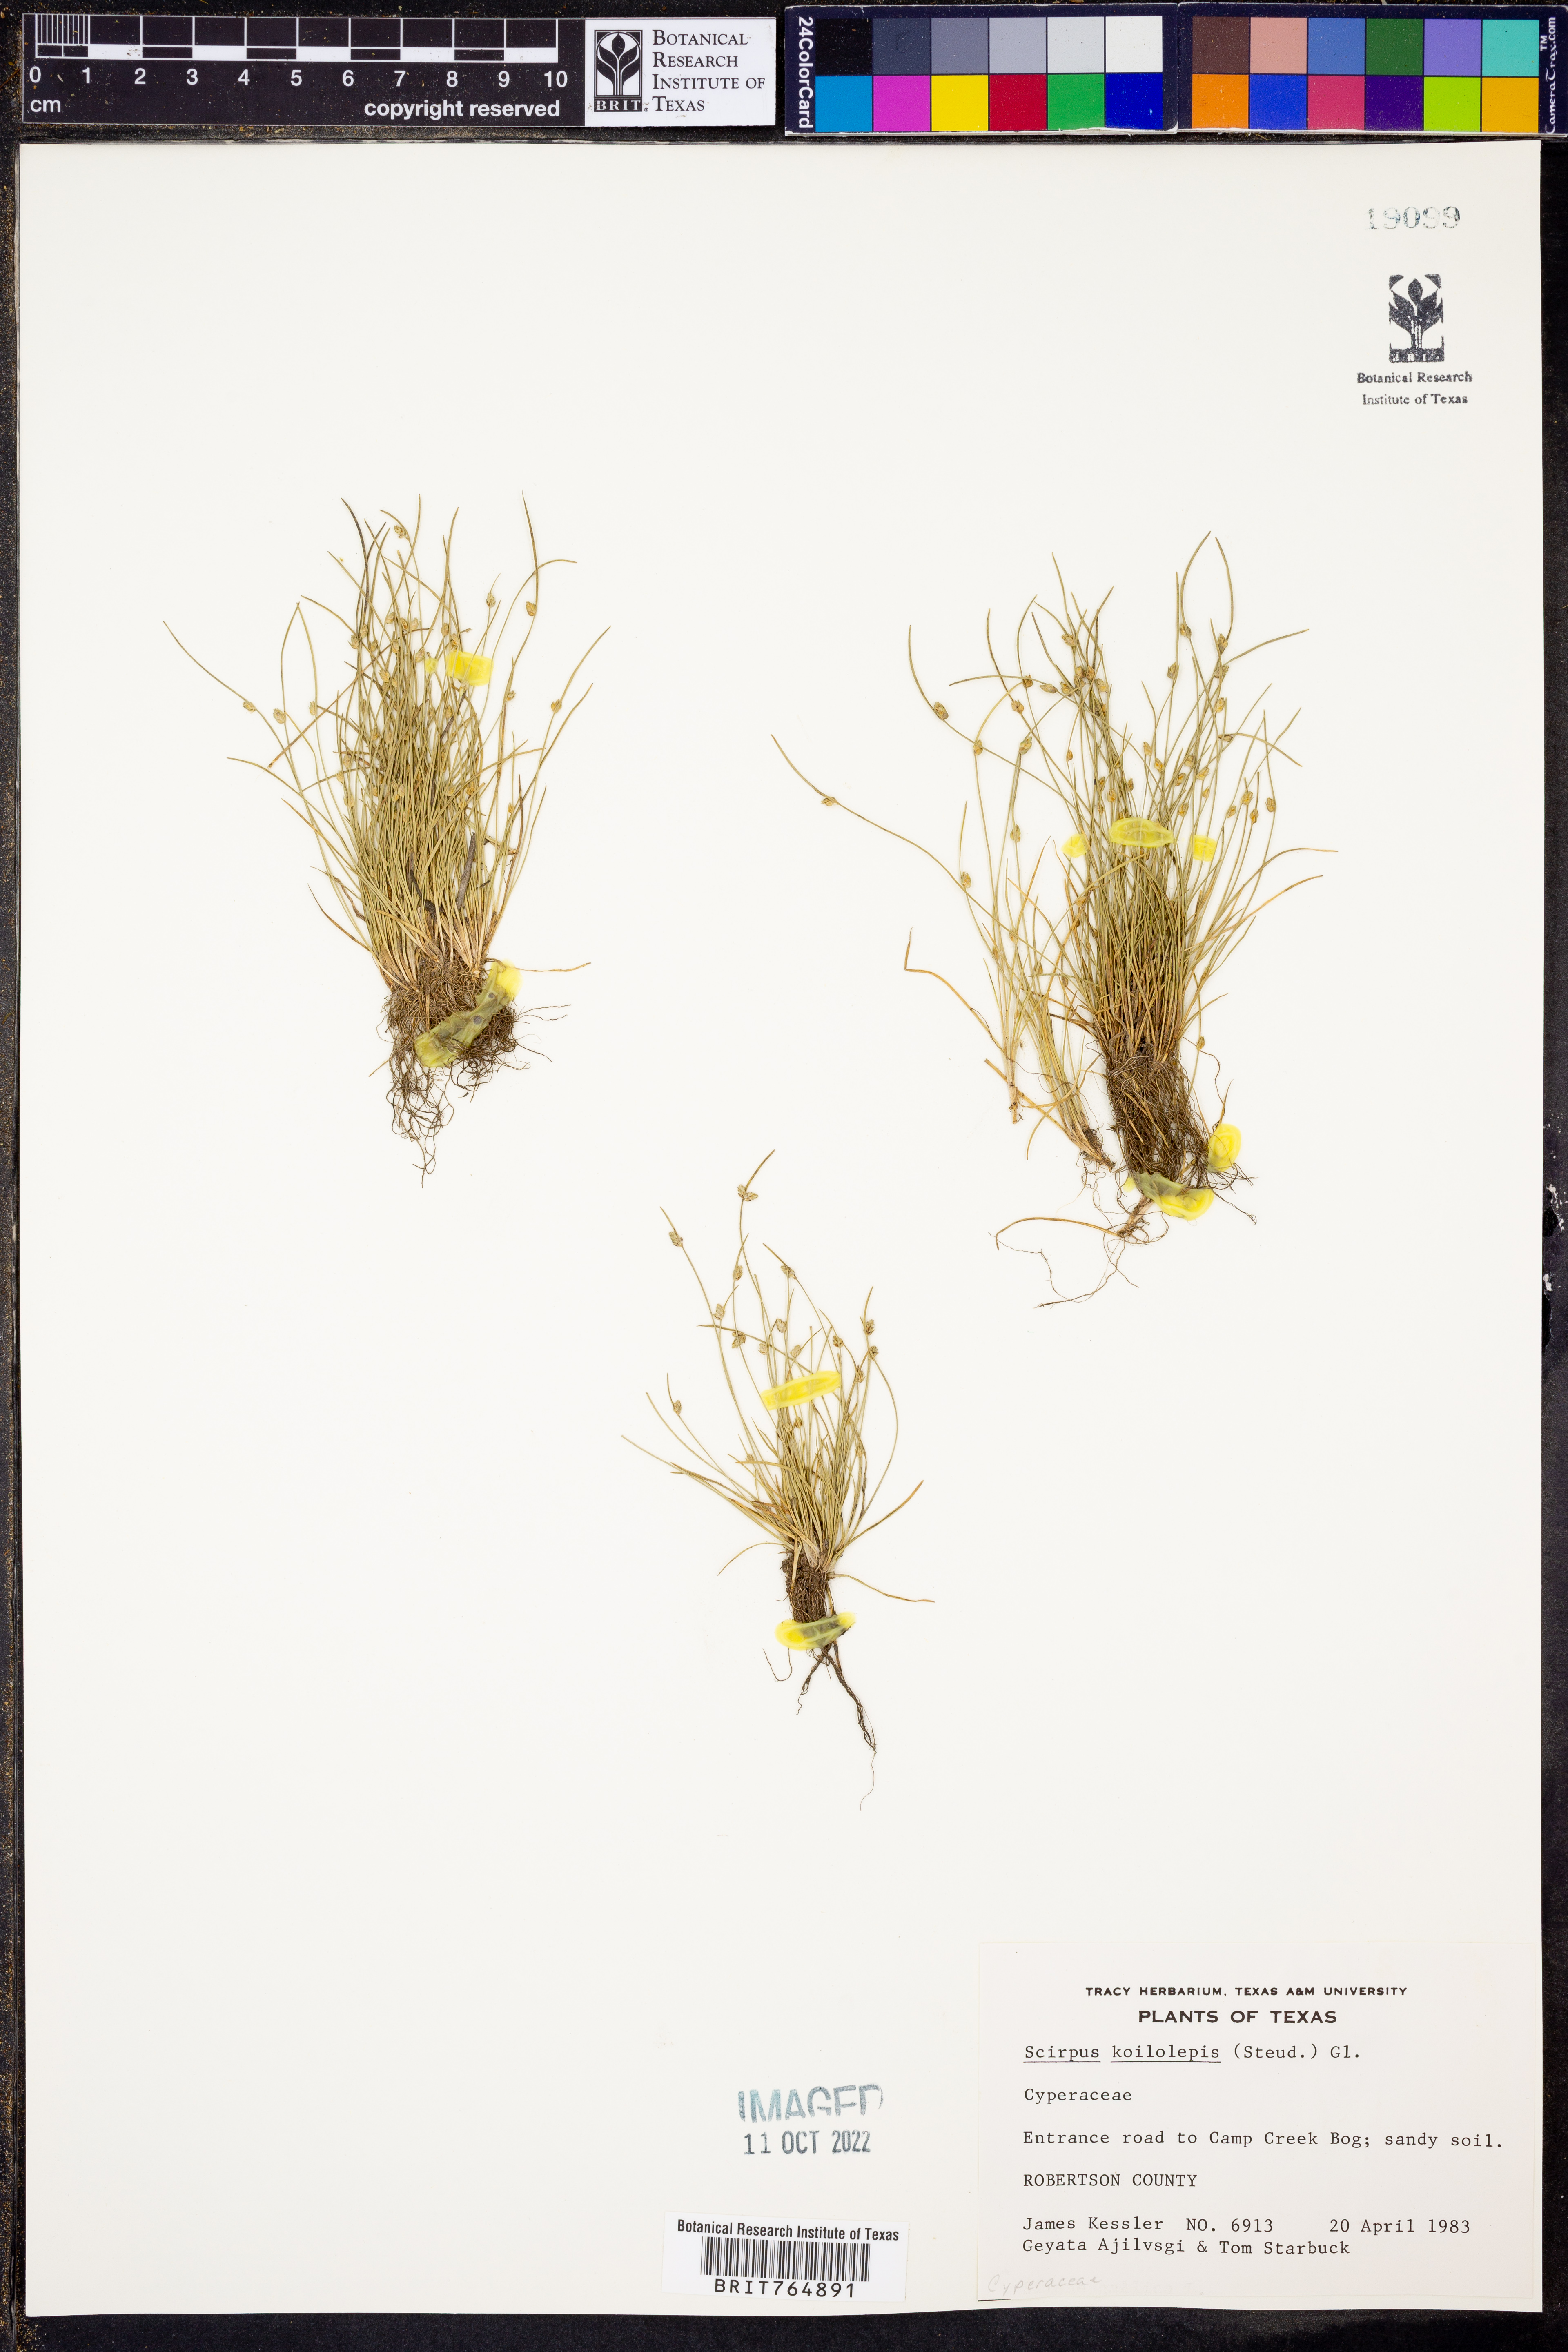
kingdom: Plantae
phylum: Tracheophyta
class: Liliopsida
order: Poales
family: Cyperaceae
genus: Isolepis
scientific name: Isolepis carinata
